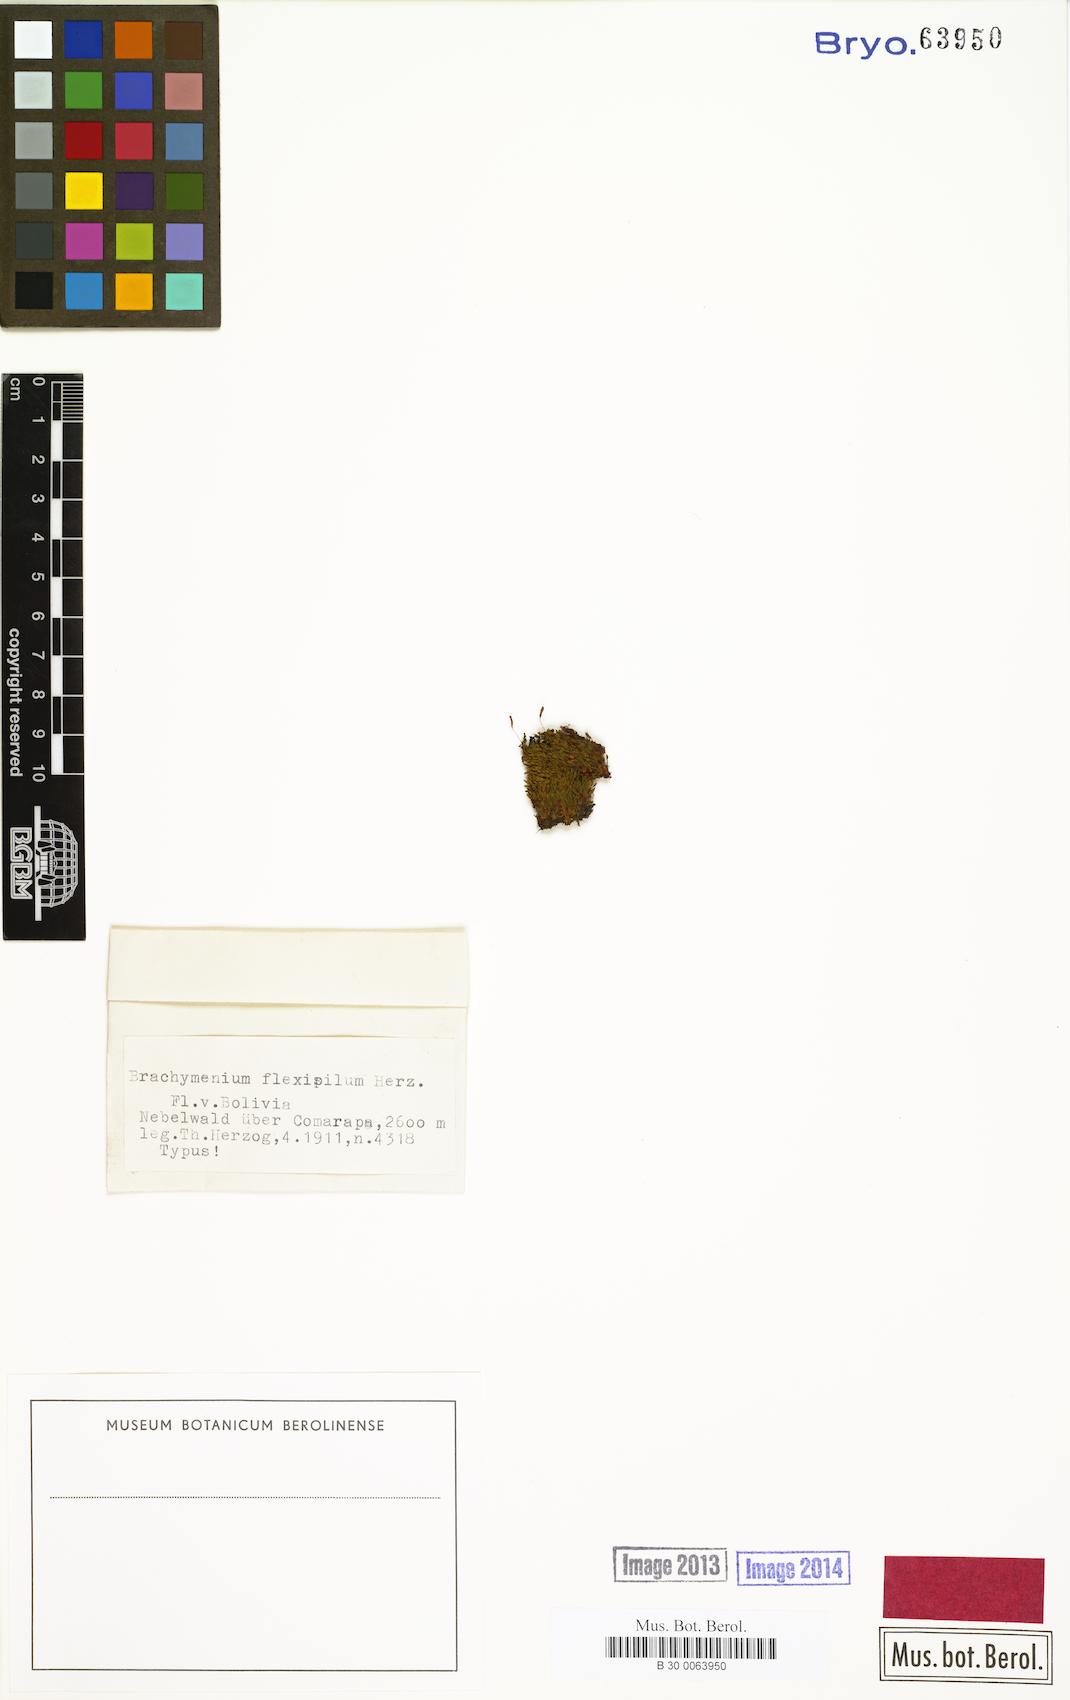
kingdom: Plantae
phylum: Bryophyta
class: Bryopsida
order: Bryales
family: Bryaceae
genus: Leptostomopsis
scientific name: Leptostomopsis systylia
